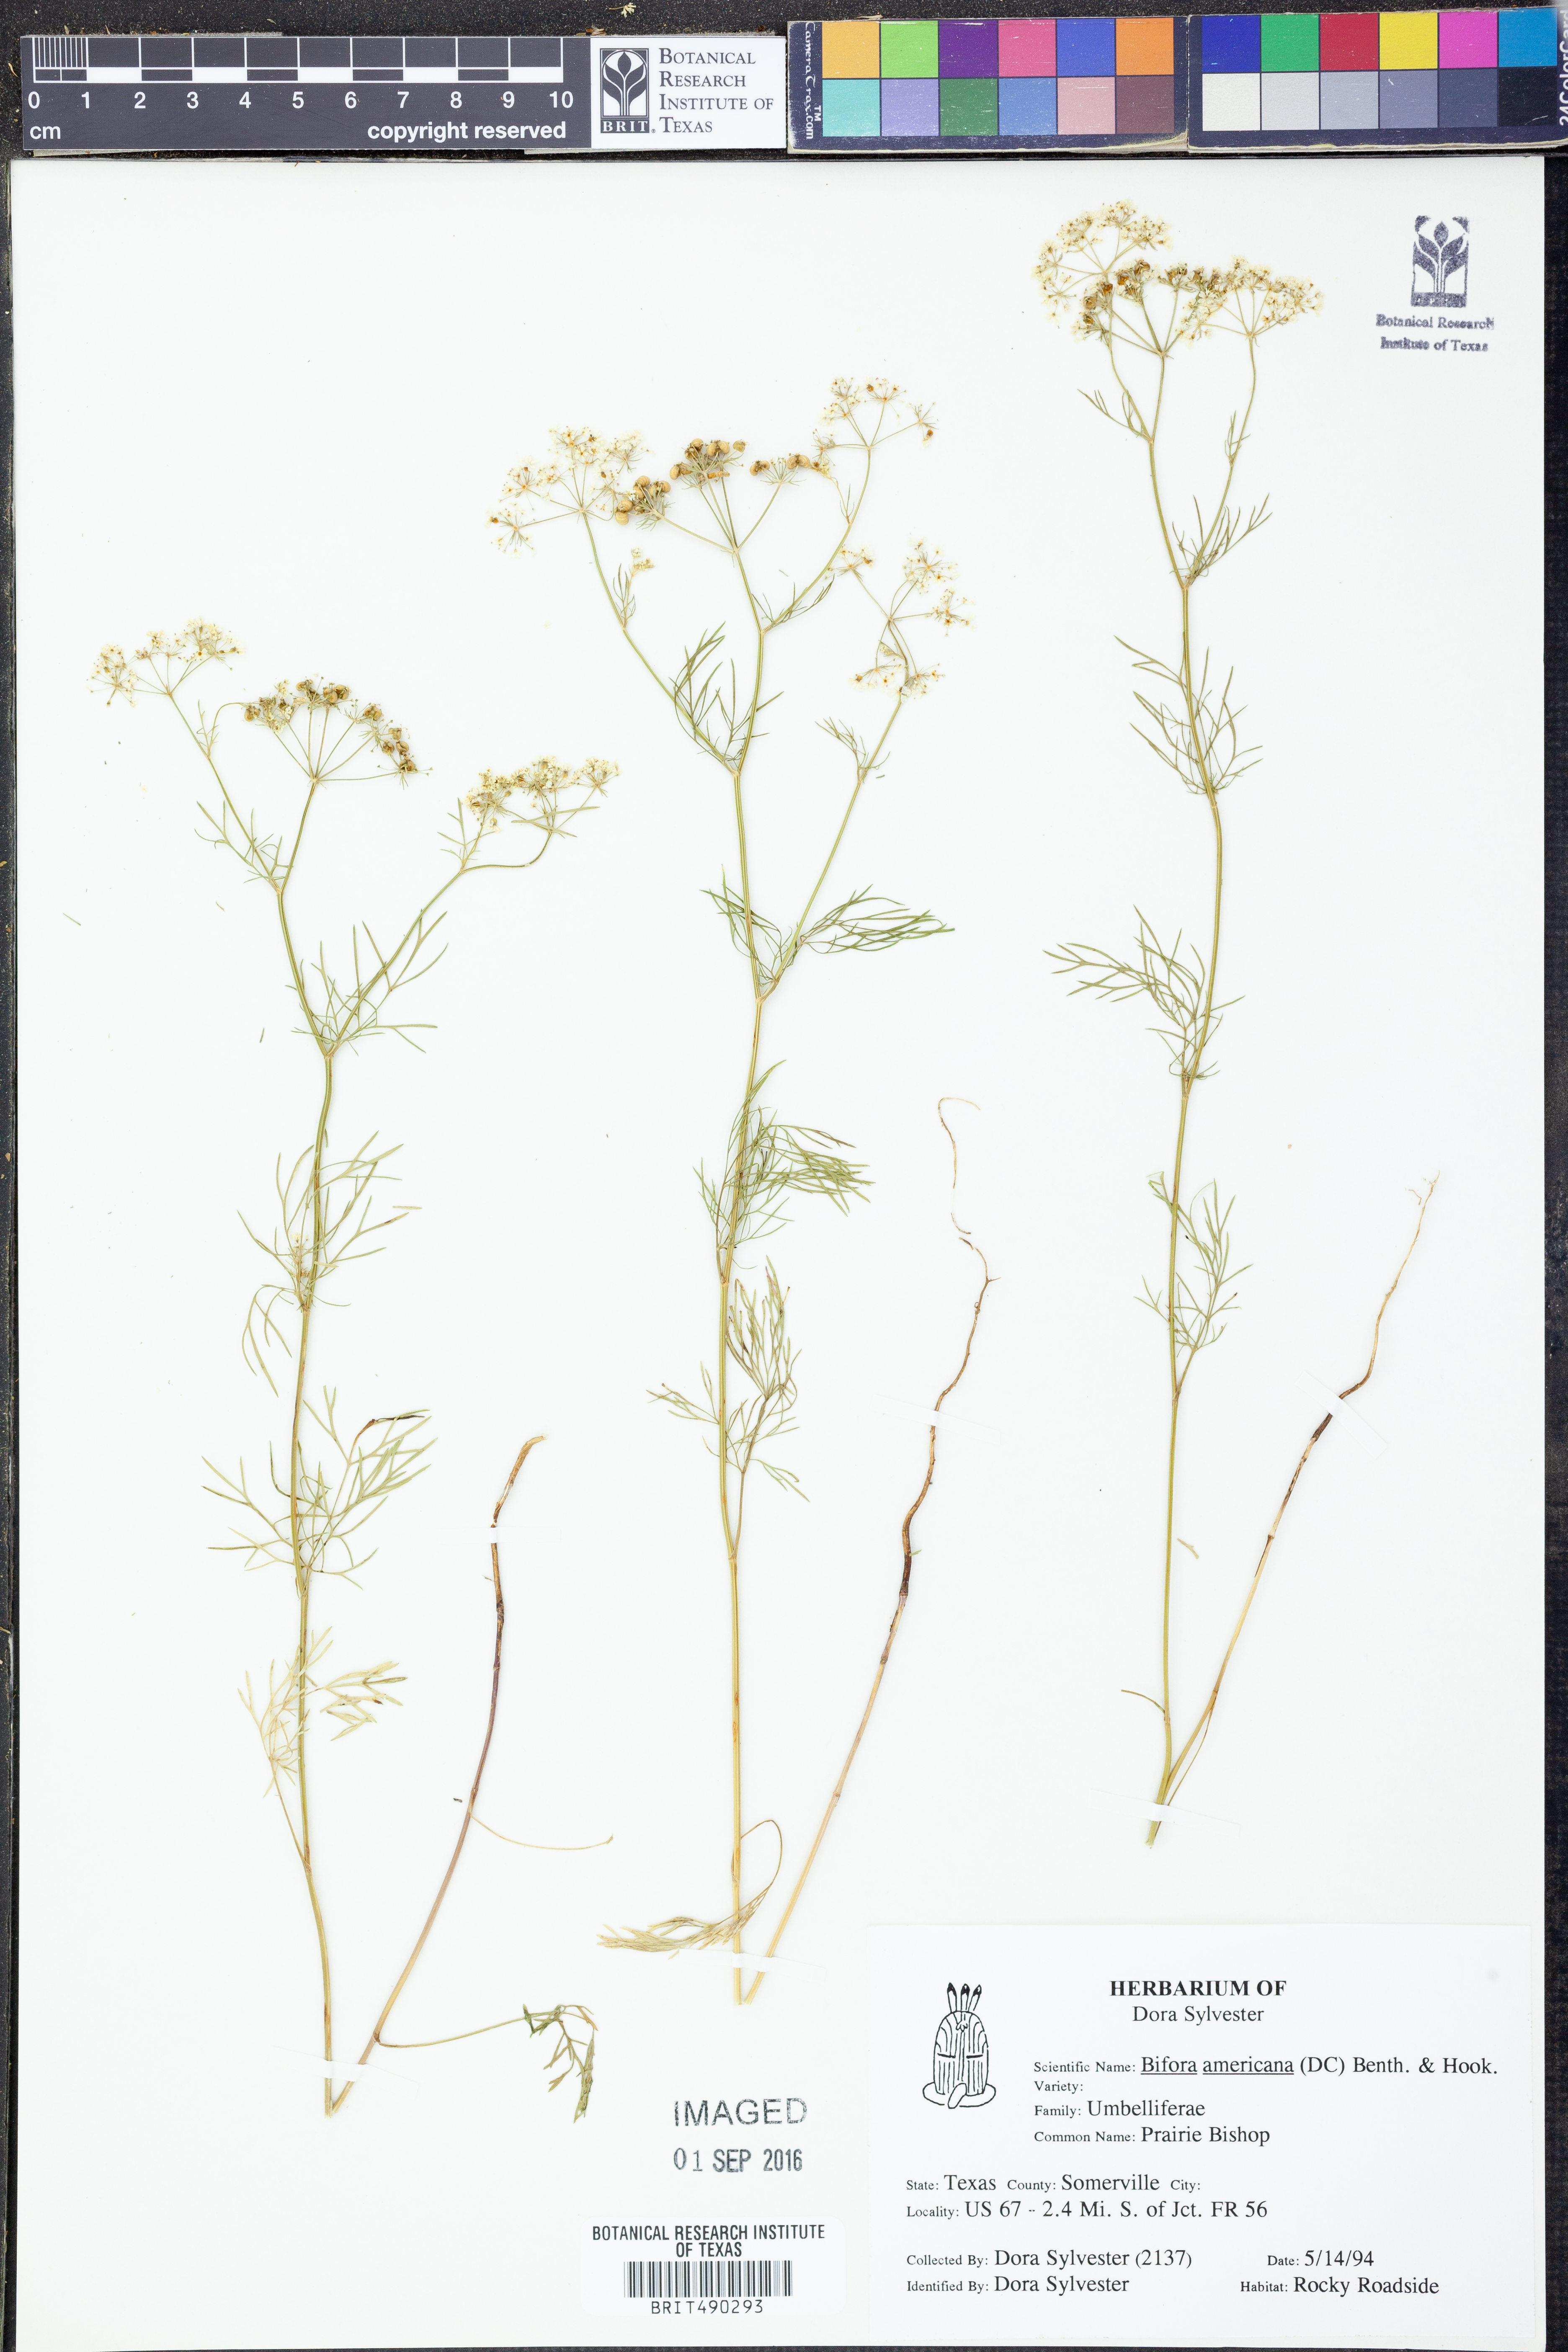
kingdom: Plantae
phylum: Tracheophyta
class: Magnoliopsida
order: Apiales
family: Apiaceae
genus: Atrema
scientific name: Atrema americanum
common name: Prairie-bishop
